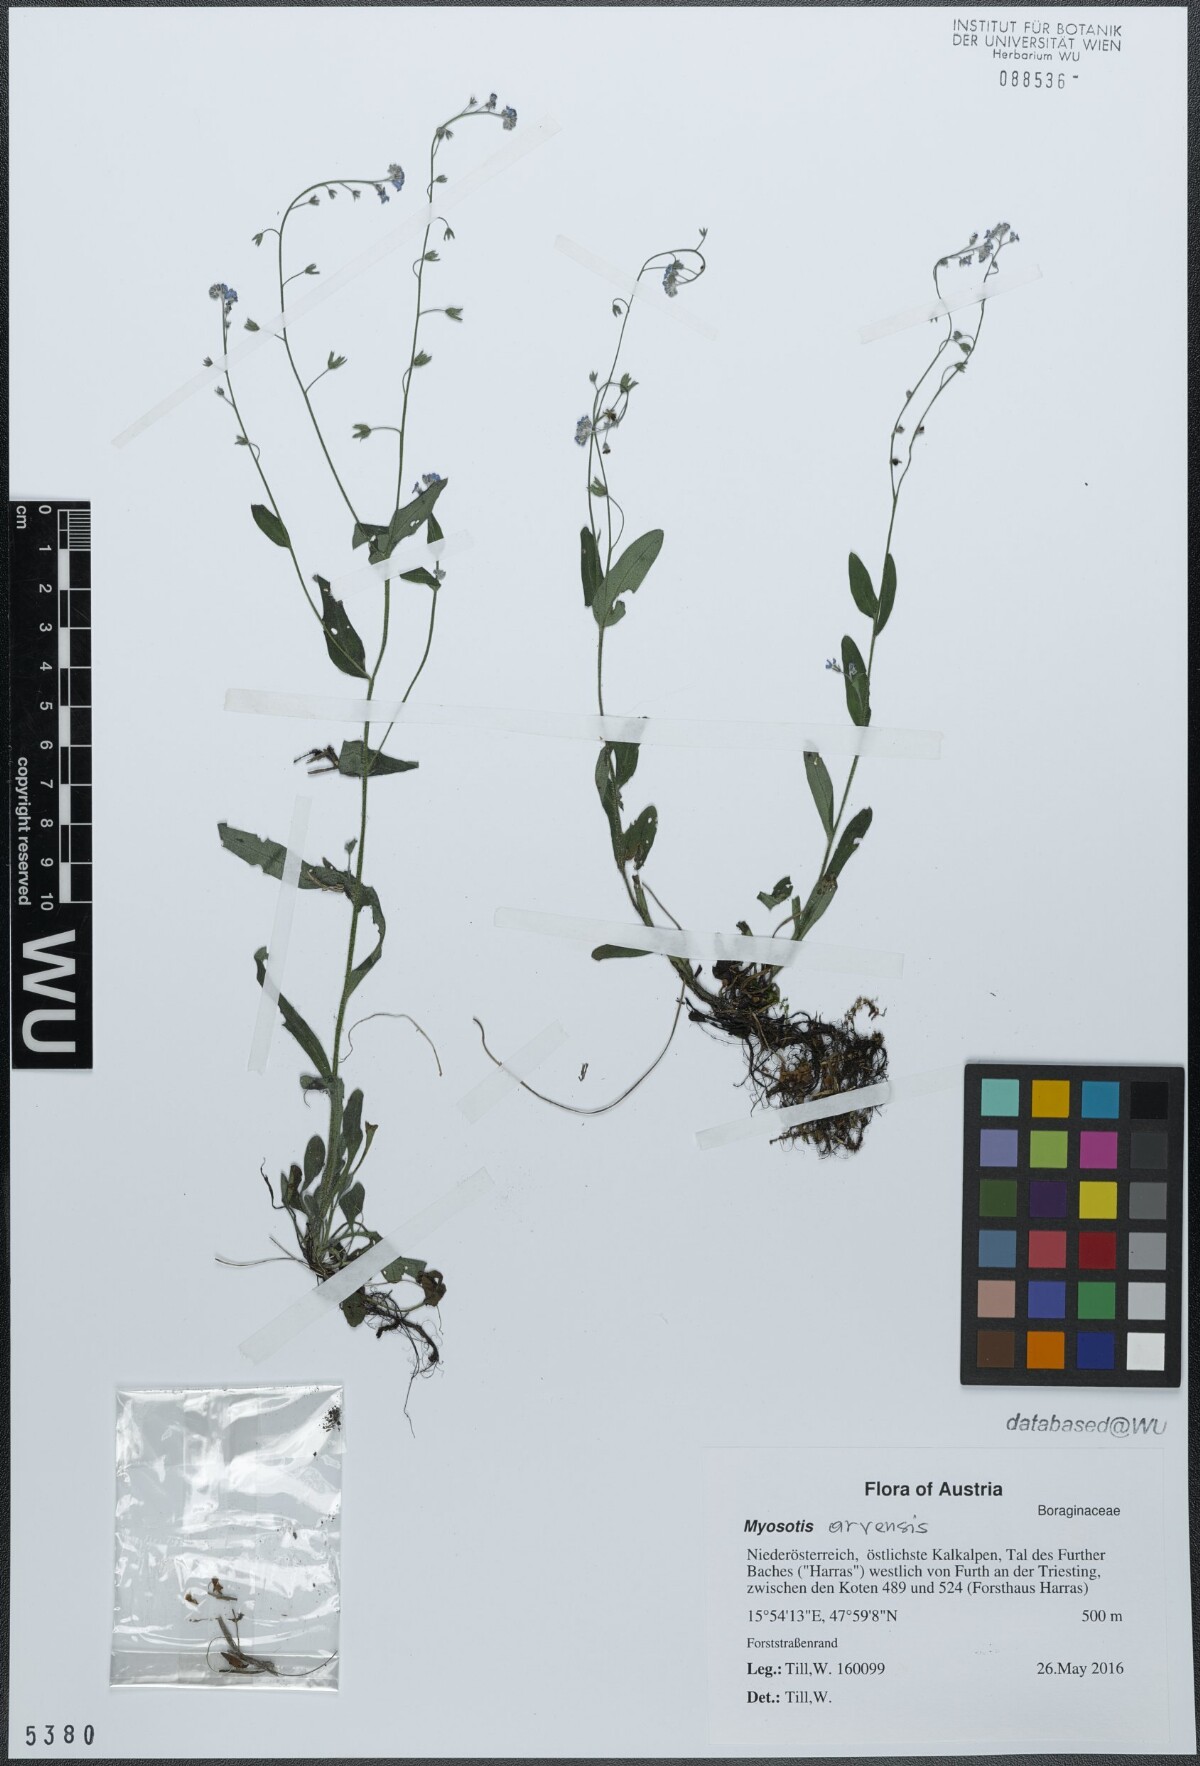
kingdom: Plantae
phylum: Tracheophyta
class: Magnoliopsida
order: Boraginales
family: Boraginaceae
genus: Myosotis
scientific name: Myosotis arvensis
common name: Field forget-me-not
